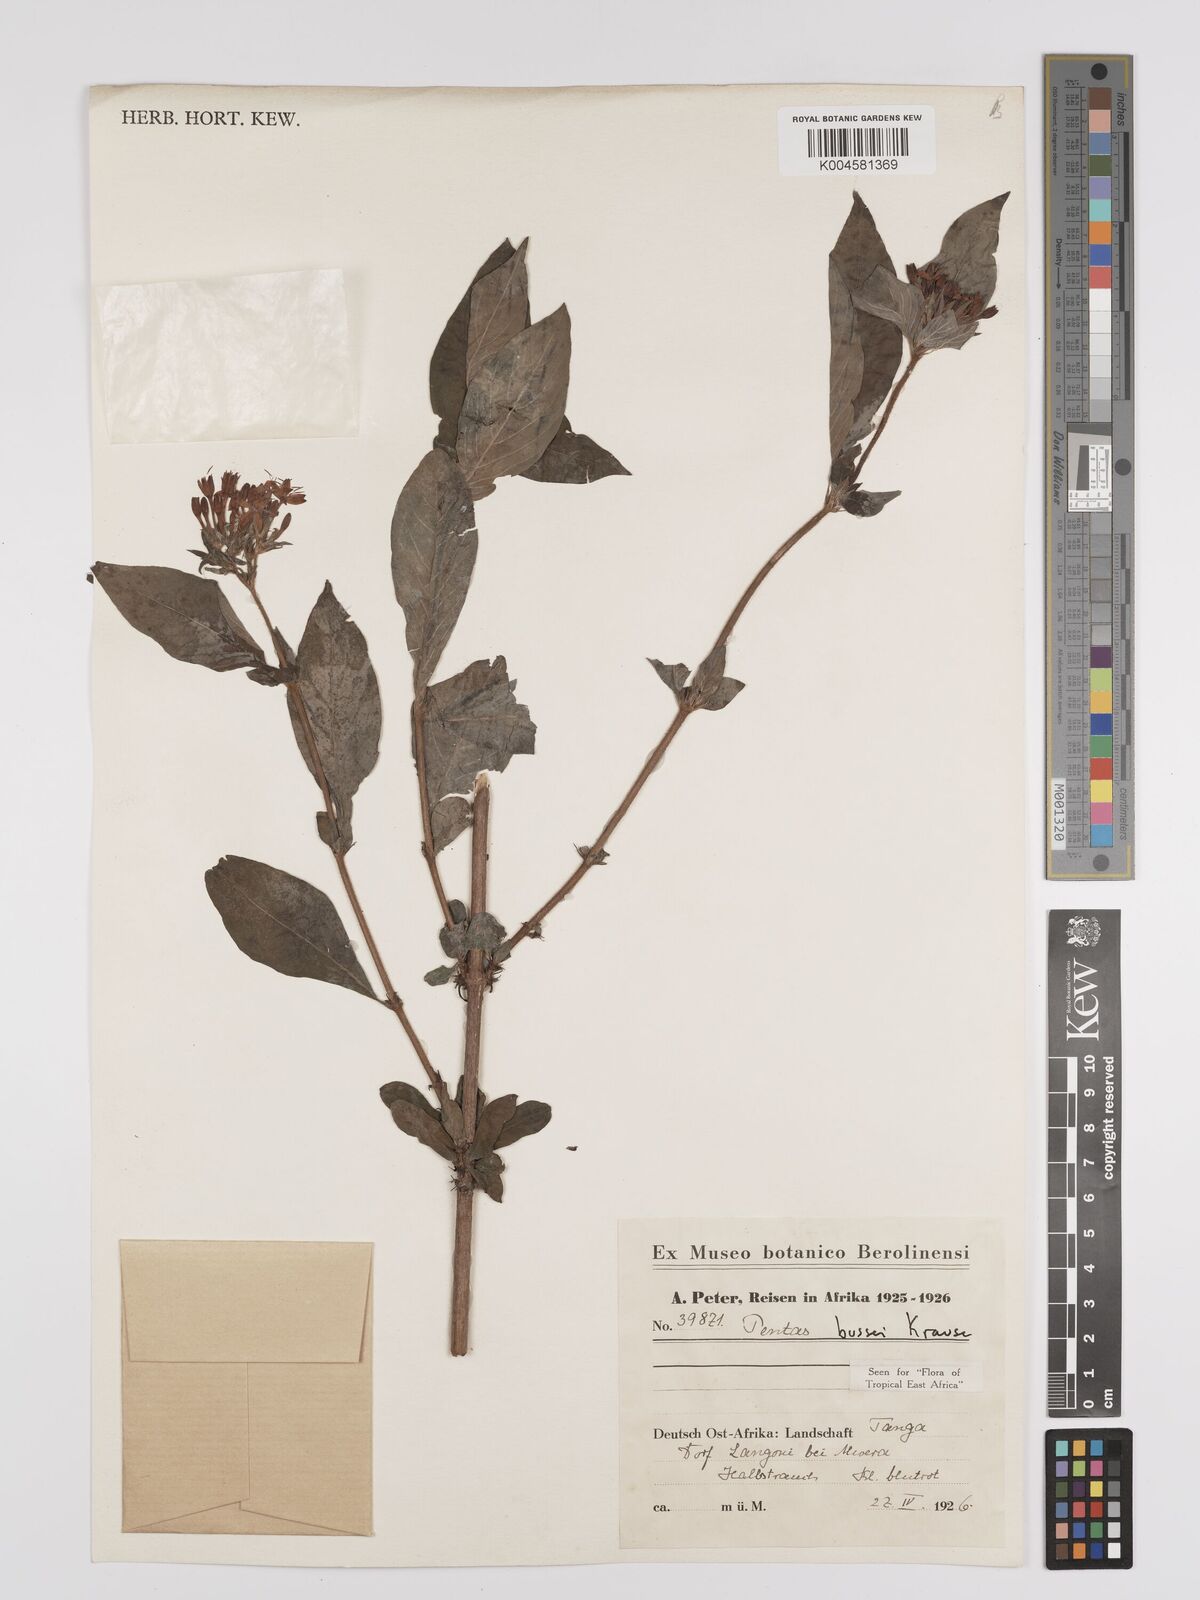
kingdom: Plantae
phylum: Tracheophyta
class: Magnoliopsida
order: Gentianales
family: Rubiaceae
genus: Rhodopentas
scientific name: Rhodopentas bussei
